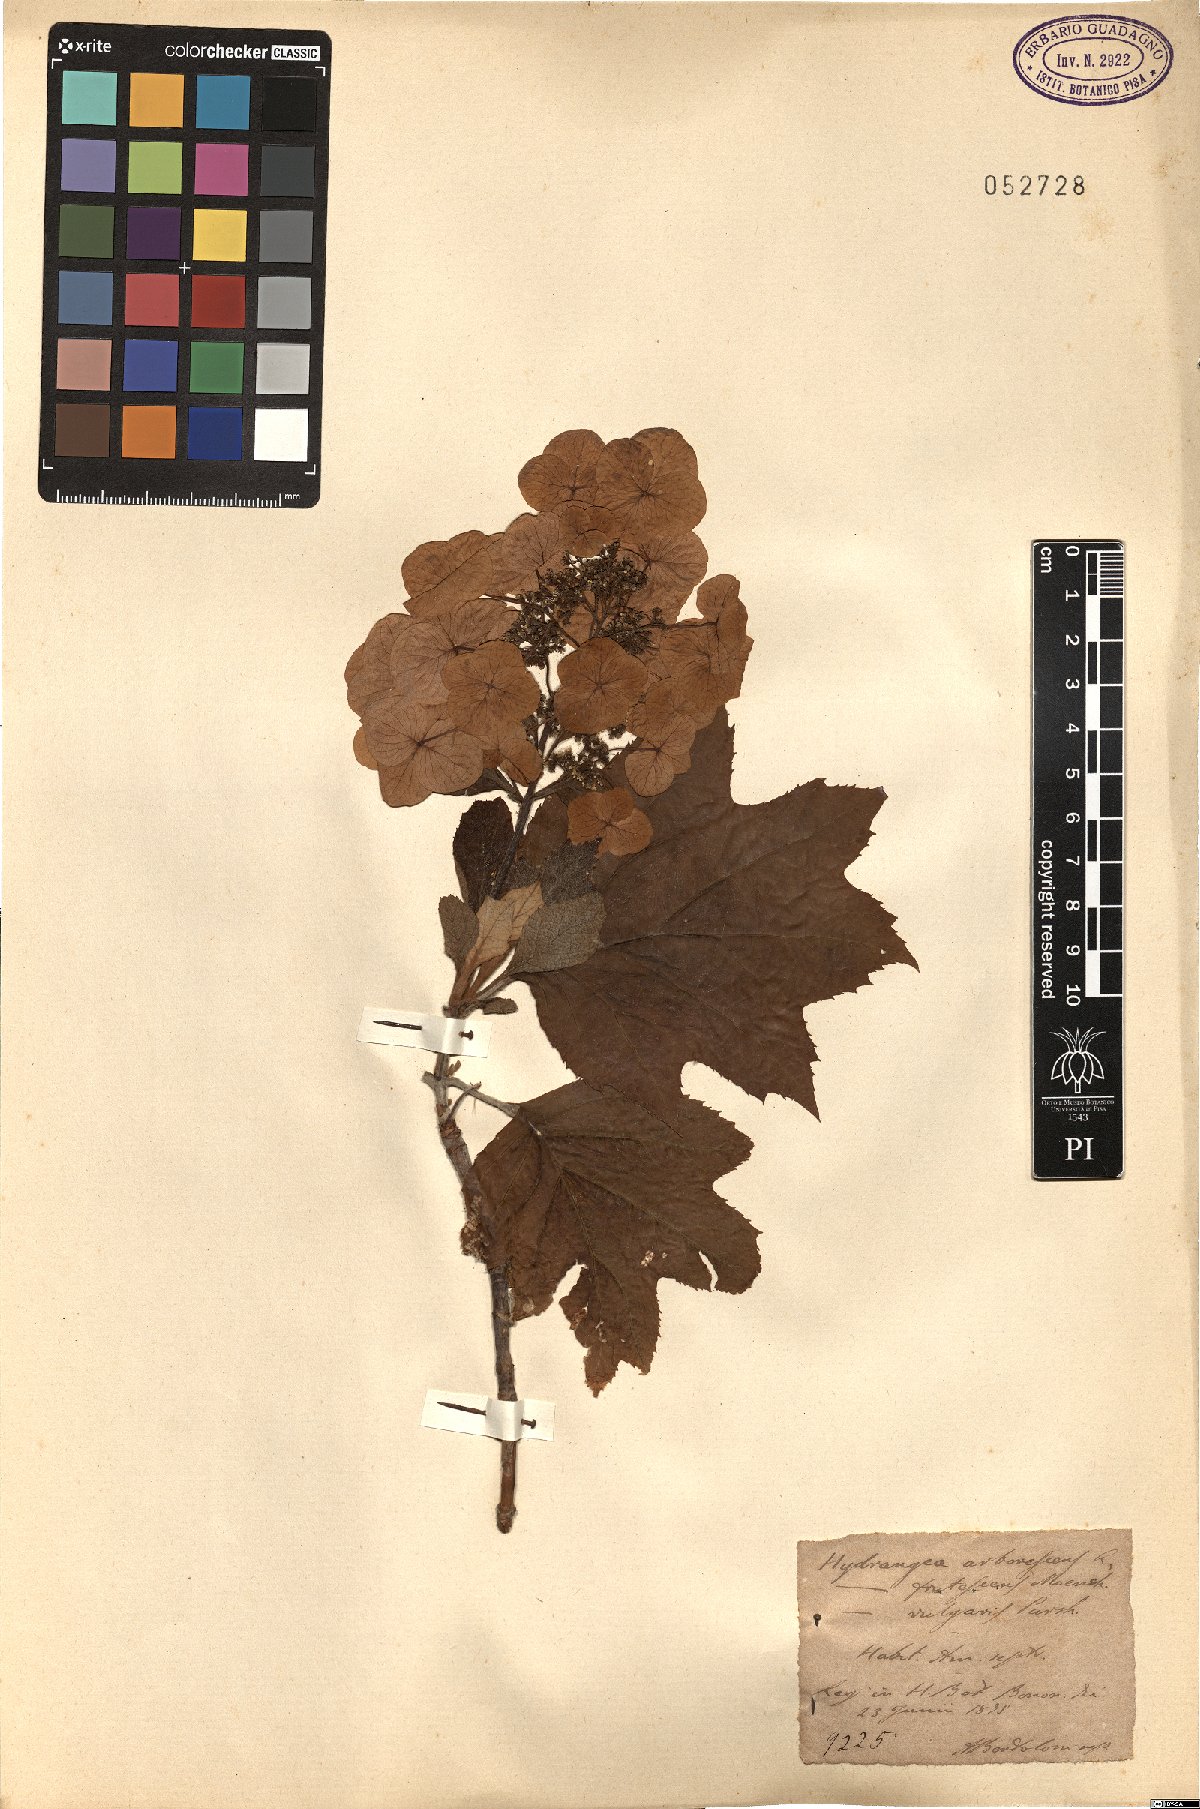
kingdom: Plantae
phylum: Tracheophyta
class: Magnoliopsida
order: Cornales
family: Hydrangeaceae
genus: Hydrangea
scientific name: Hydrangea arborescens
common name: Sevenbark
